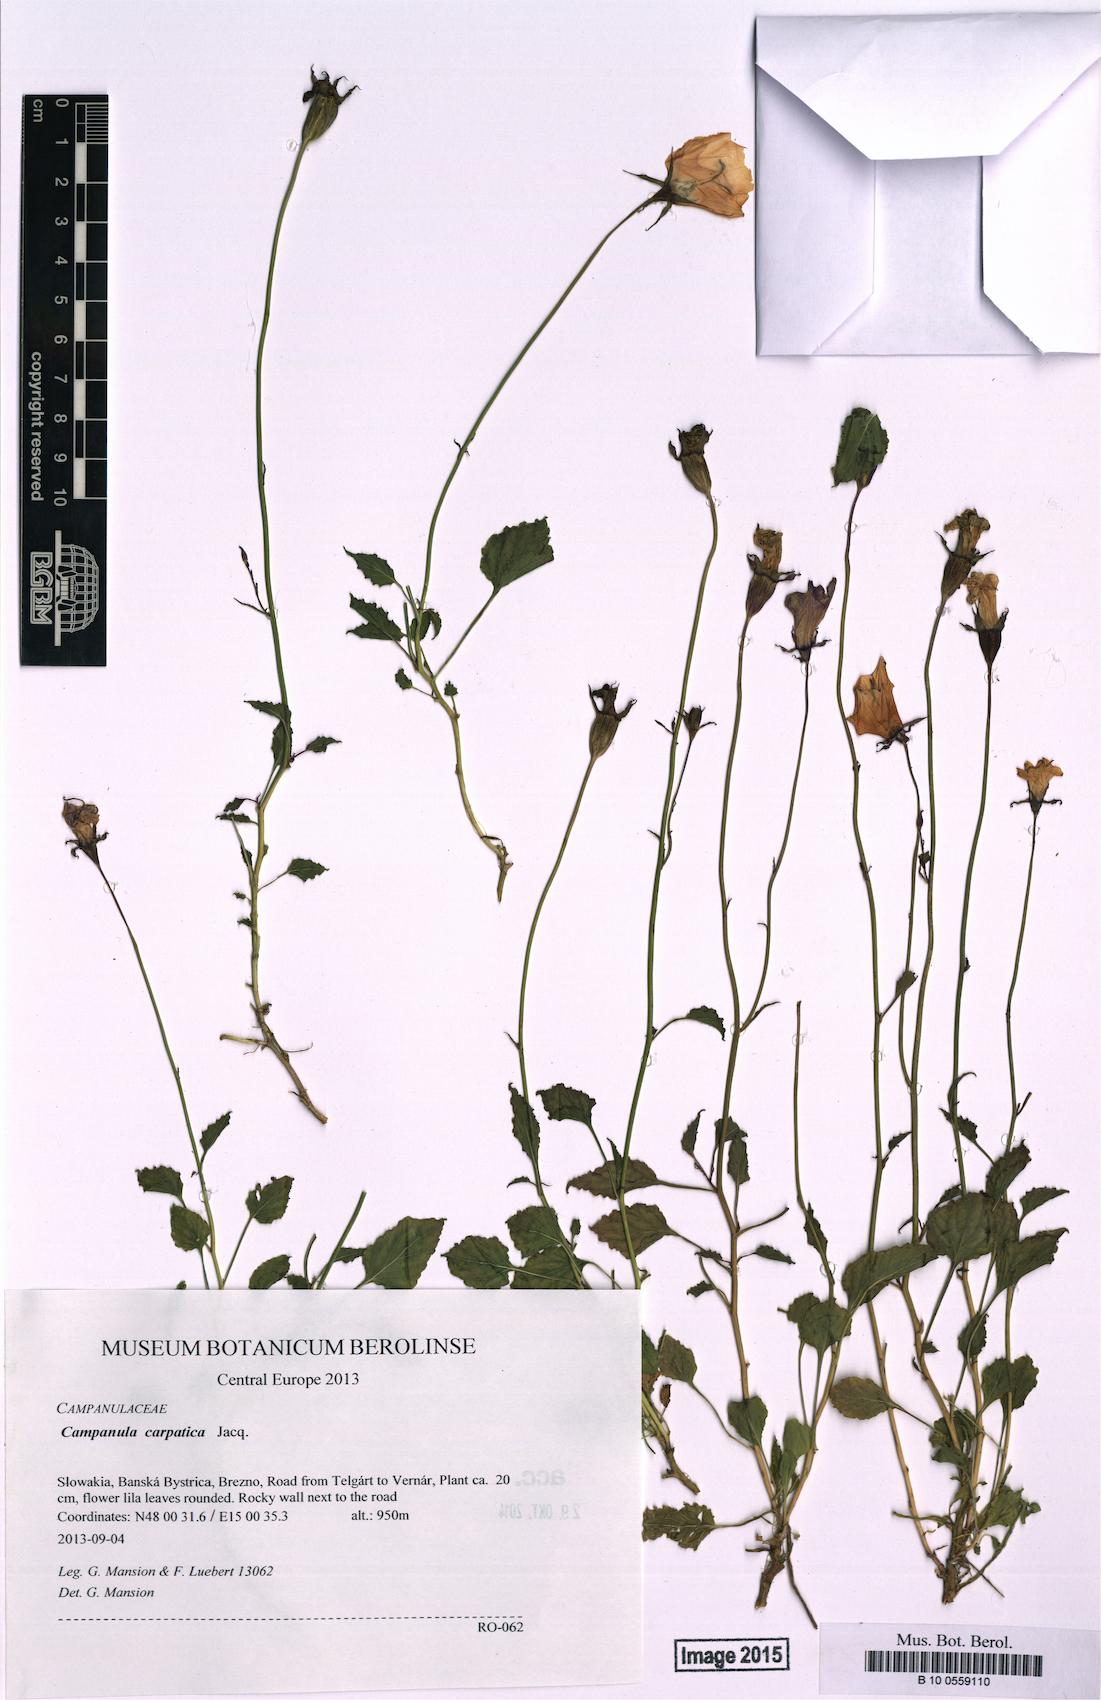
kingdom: Plantae
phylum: Tracheophyta
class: Magnoliopsida
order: Asterales
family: Campanulaceae
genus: Campanula
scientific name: Campanula carpatica
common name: Tussock bellflower
